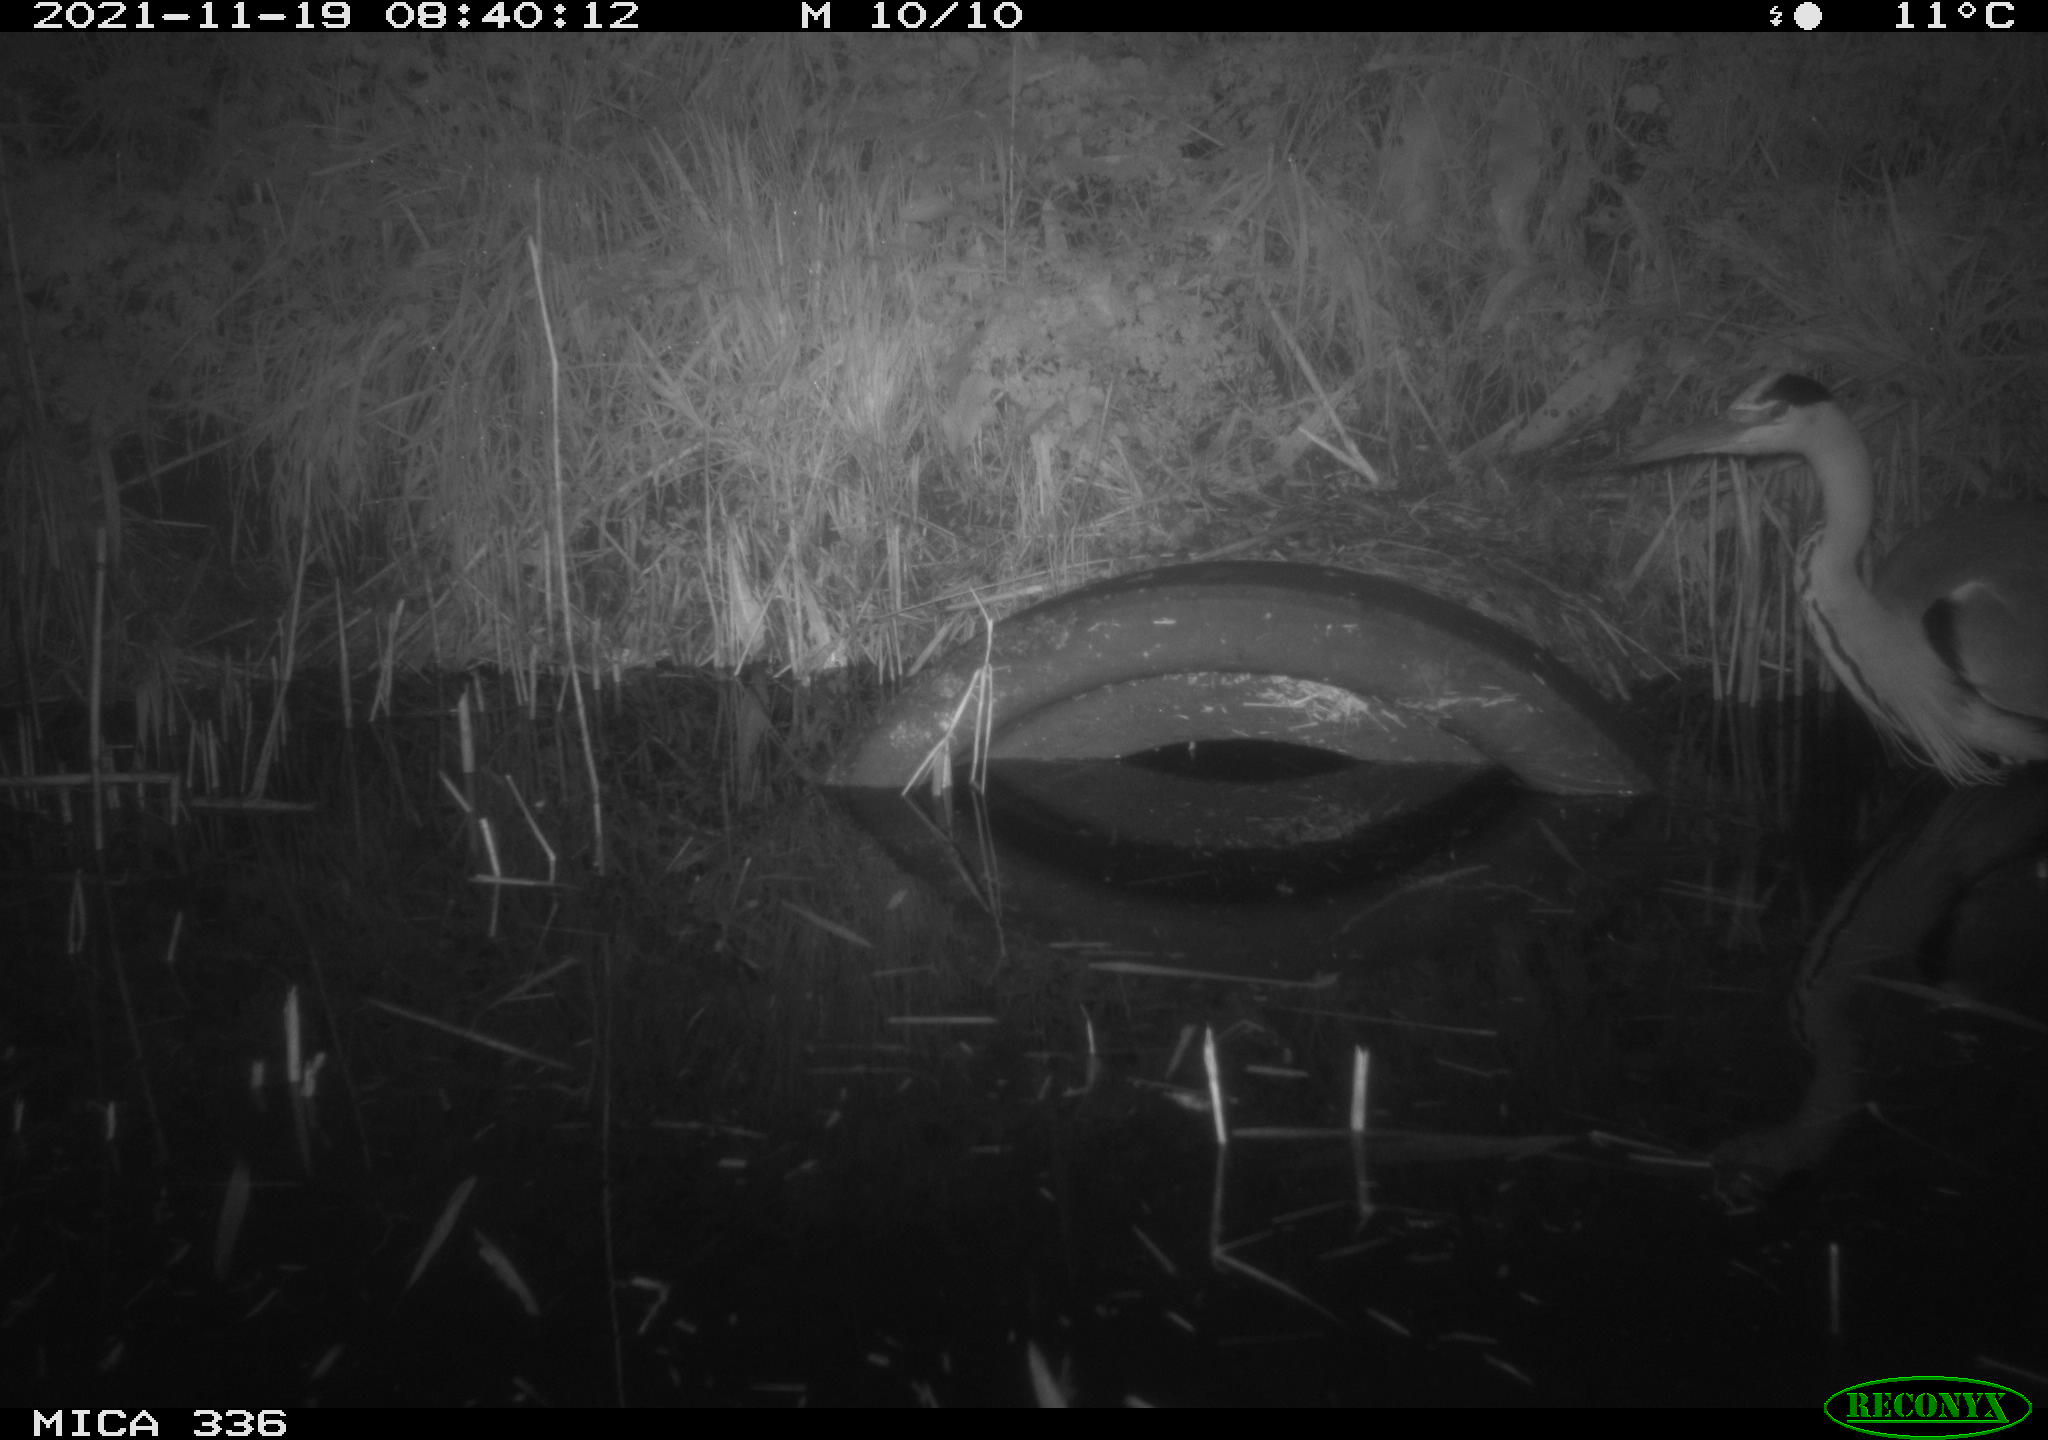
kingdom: Animalia
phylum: Chordata
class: Aves
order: Pelecaniformes
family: Ardeidae
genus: Ardea
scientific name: Ardea cinerea
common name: Grey heron
